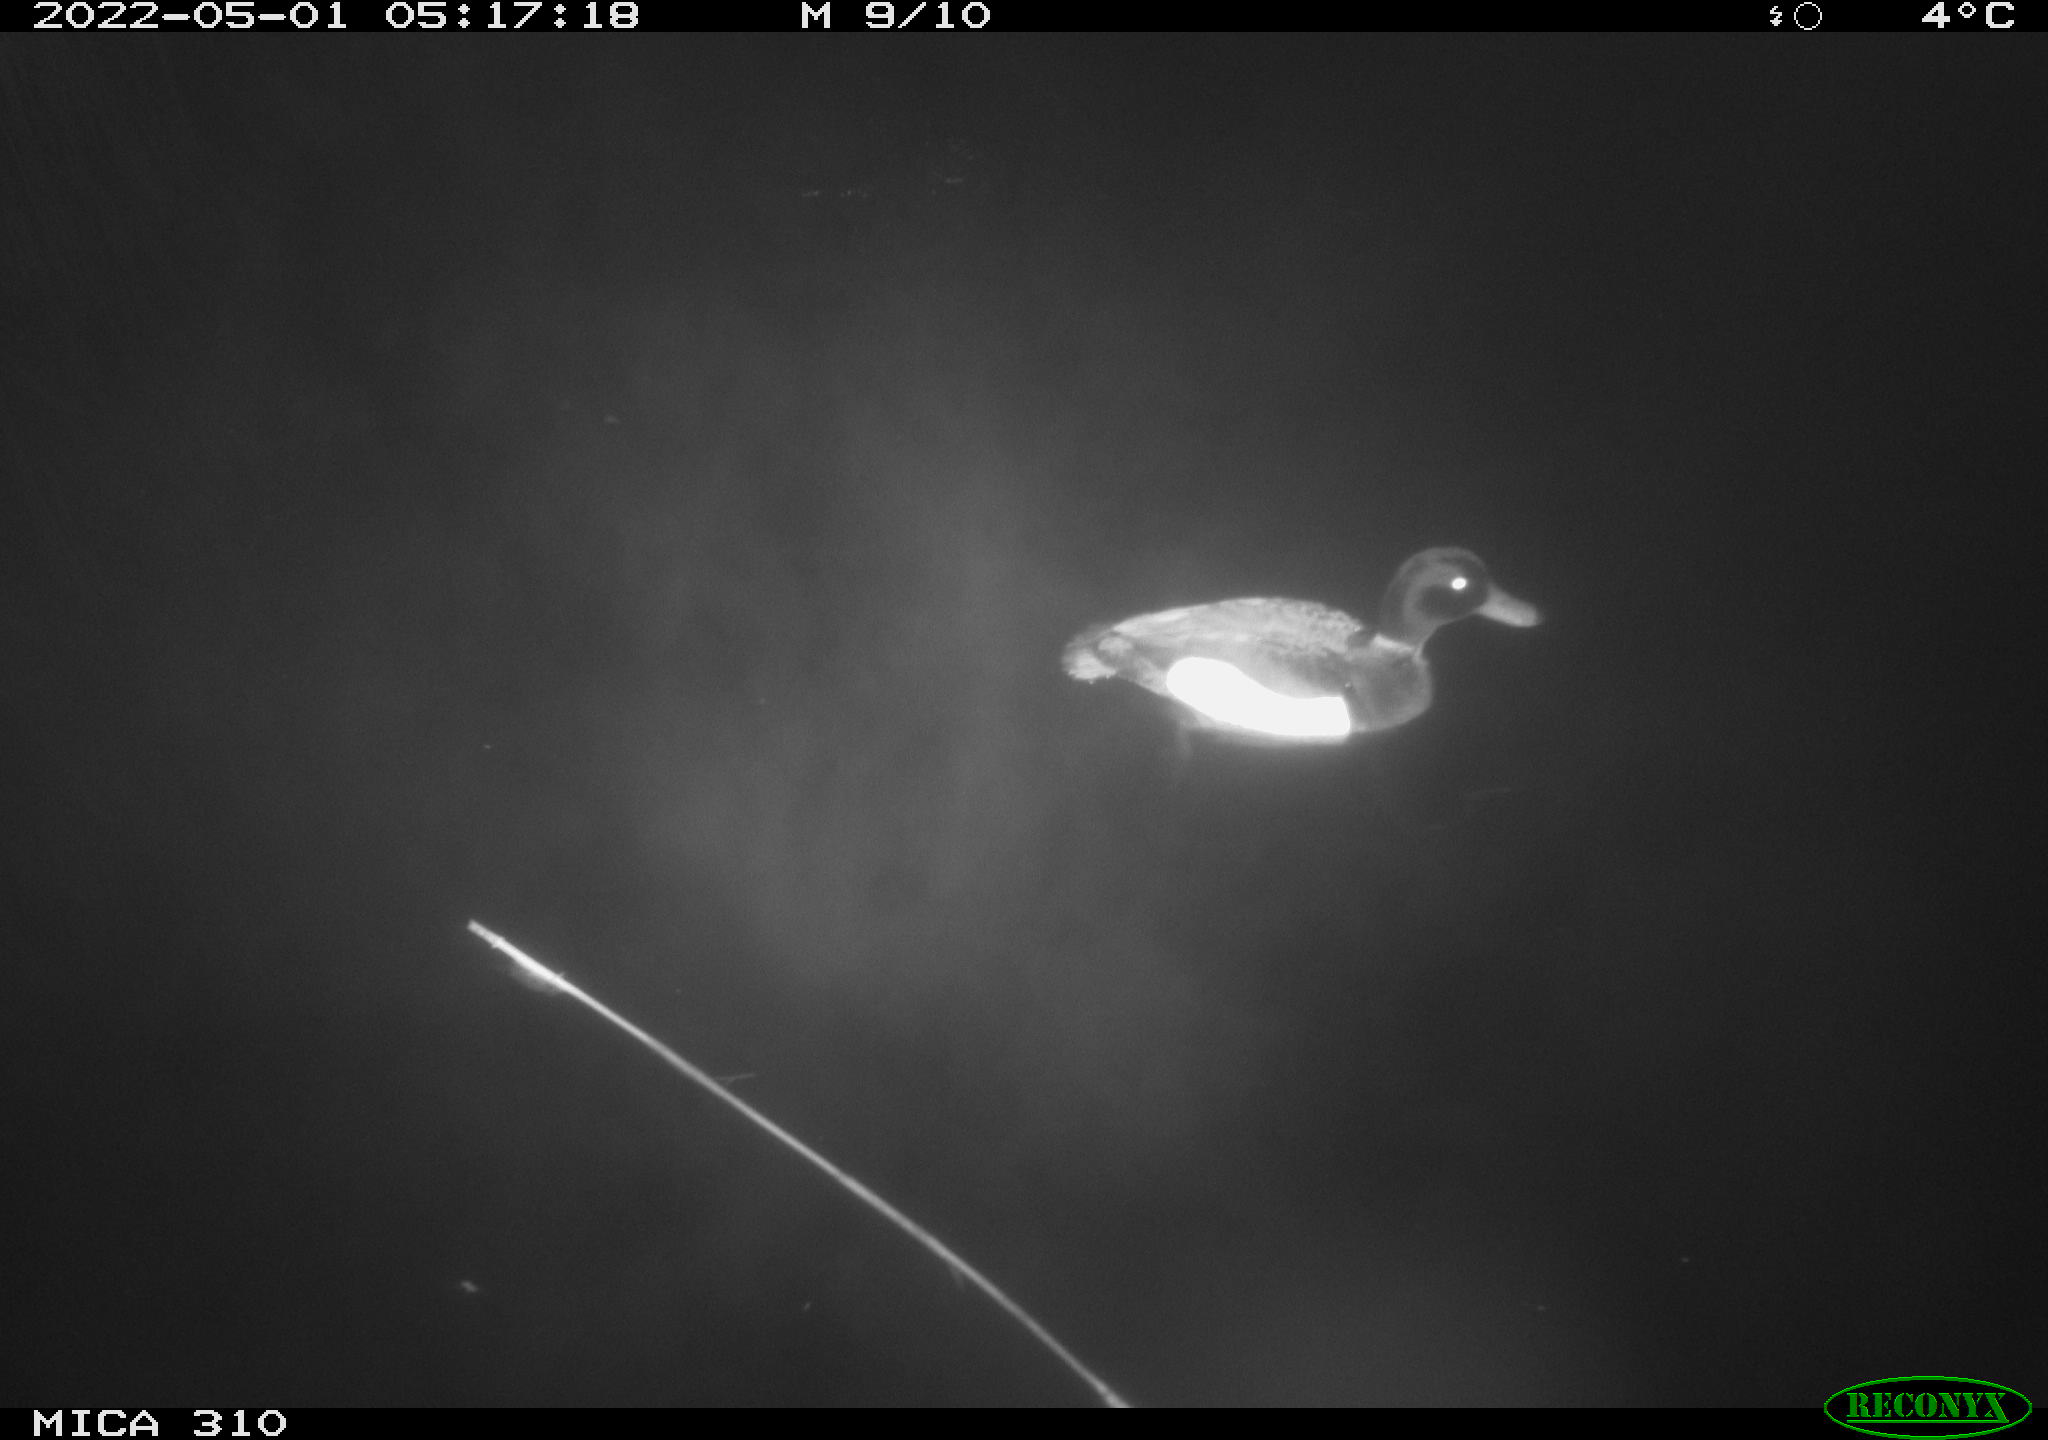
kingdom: Animalia
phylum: Chordata
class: Aves
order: Gruiformes
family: Rallidae
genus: Gallinula
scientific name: Gallinula chloropus
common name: Common moorhen
